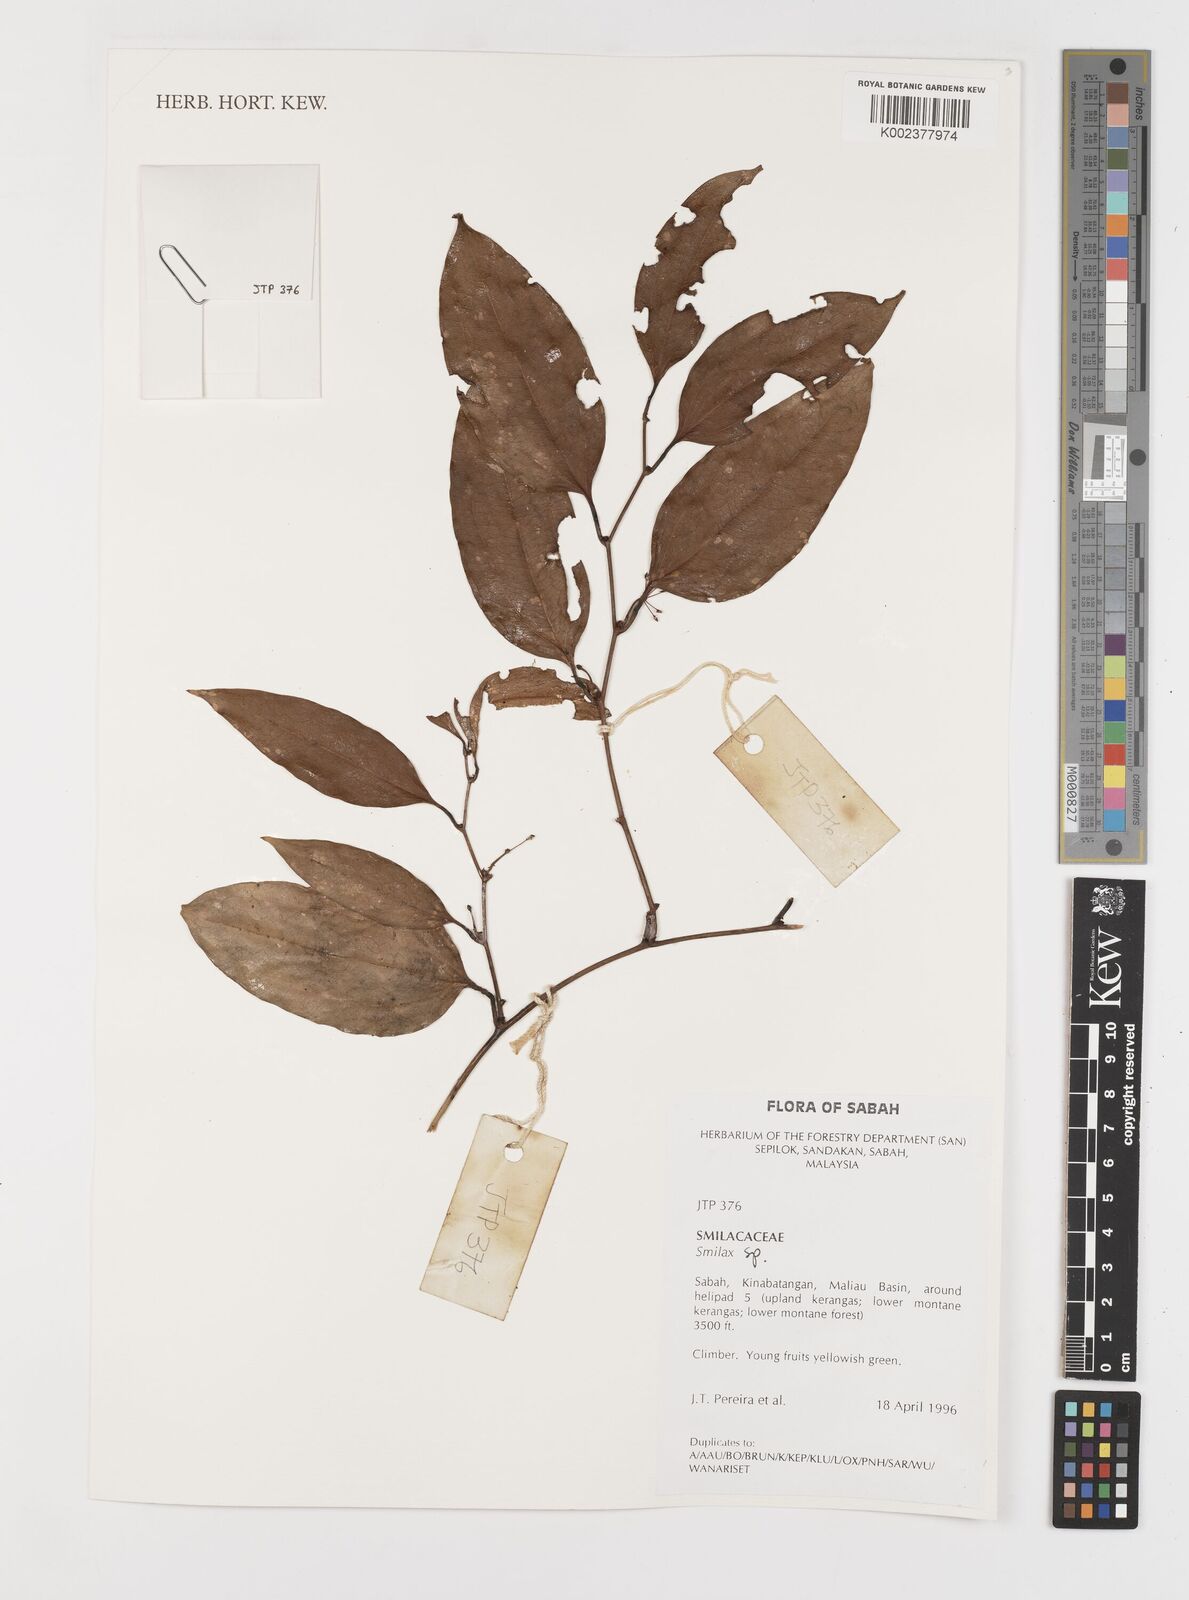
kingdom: Plantae
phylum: Tracheophyta
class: Liliopsida
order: Liliales
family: Smilacaceae
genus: Smilax
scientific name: Smilax
